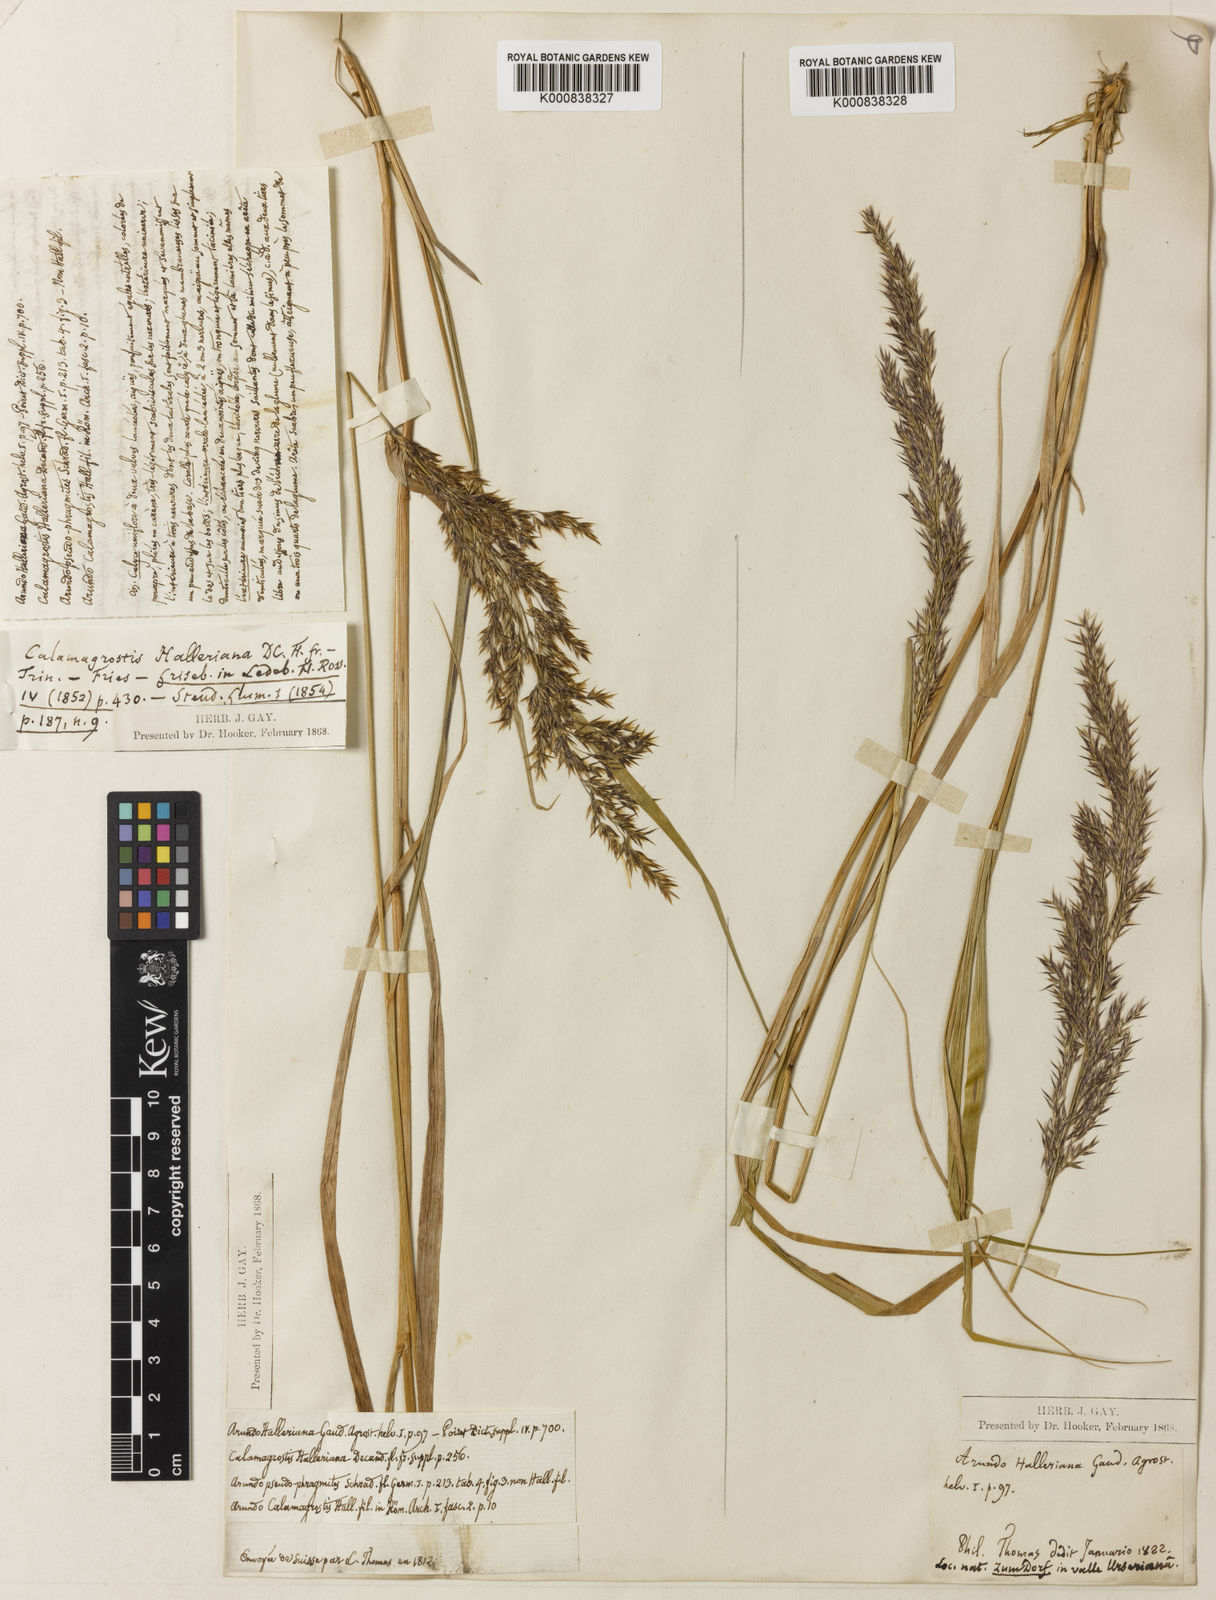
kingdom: Plantae
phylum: Tracheophyta
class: Liliopsida
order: Poales
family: Poaceae
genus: Calamagrostis
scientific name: Calamagrostis villosa
